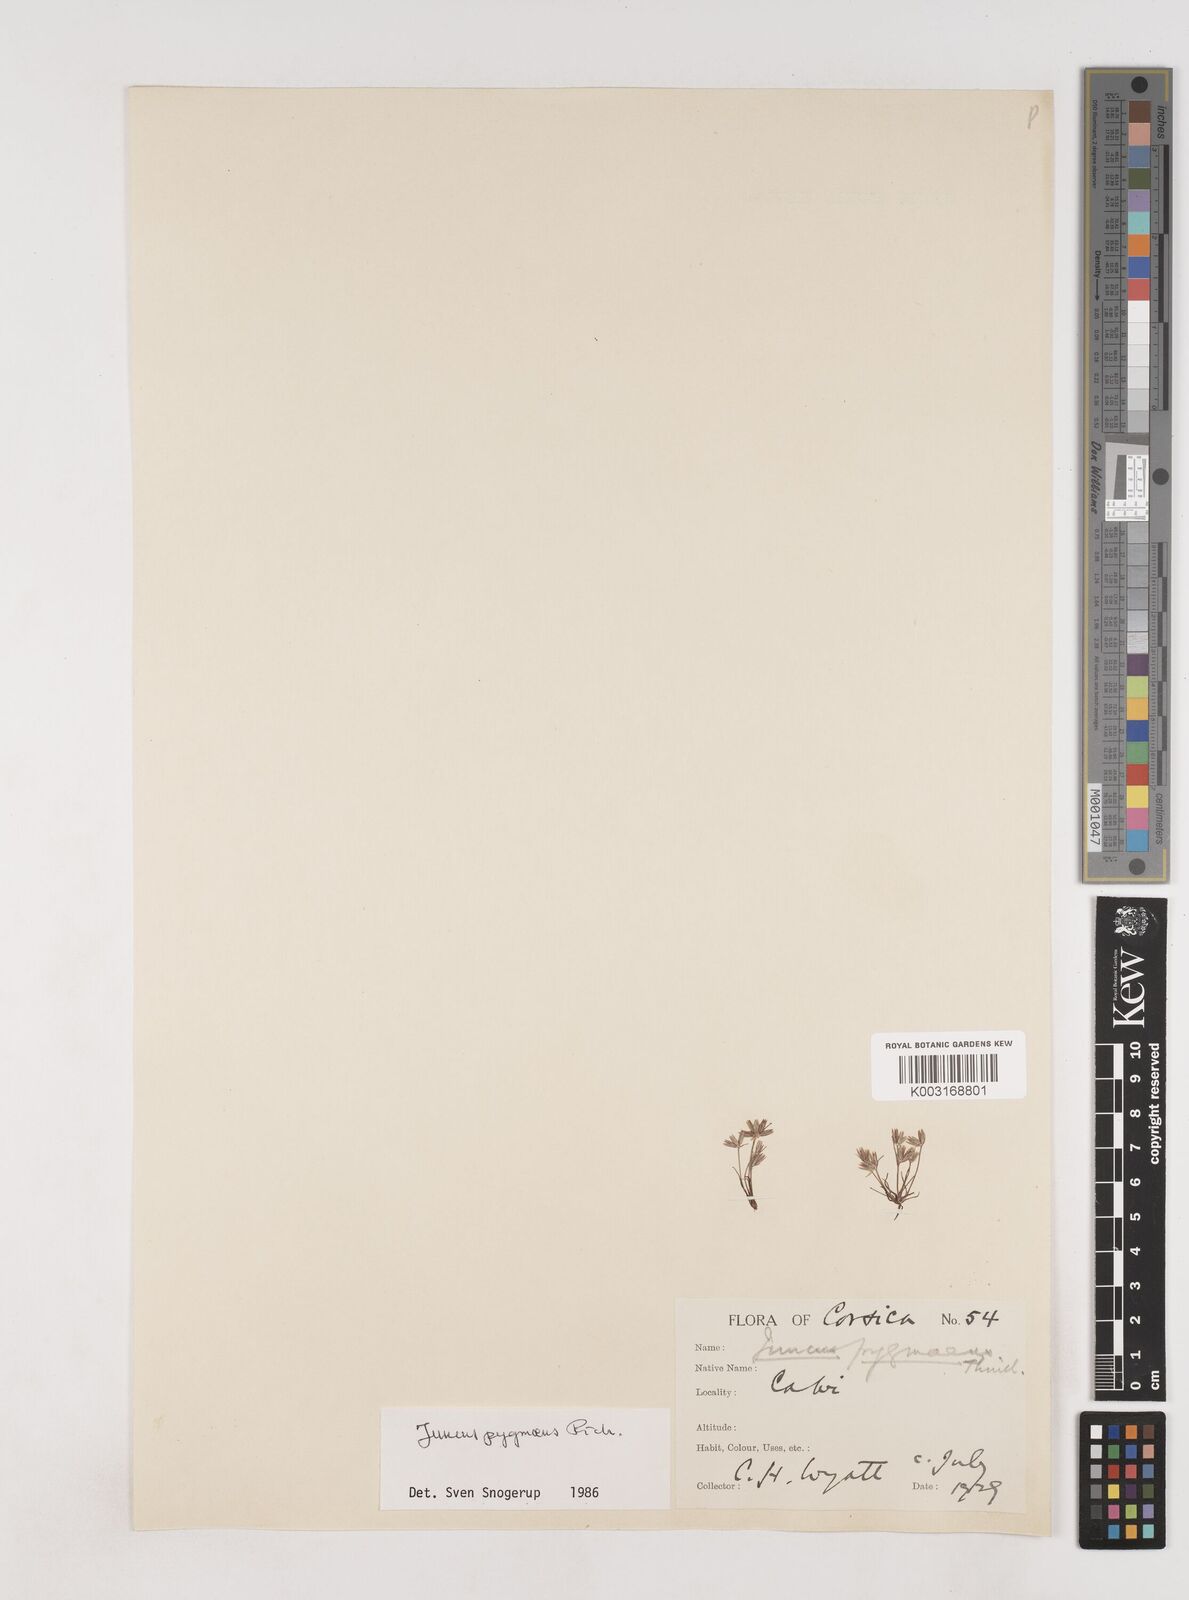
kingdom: Plantae
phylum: Tracheophyta
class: Liliopsida
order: Poales
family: Juncaceae
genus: Juncus
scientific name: Juncus pygmaeus
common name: Pigmy rush
